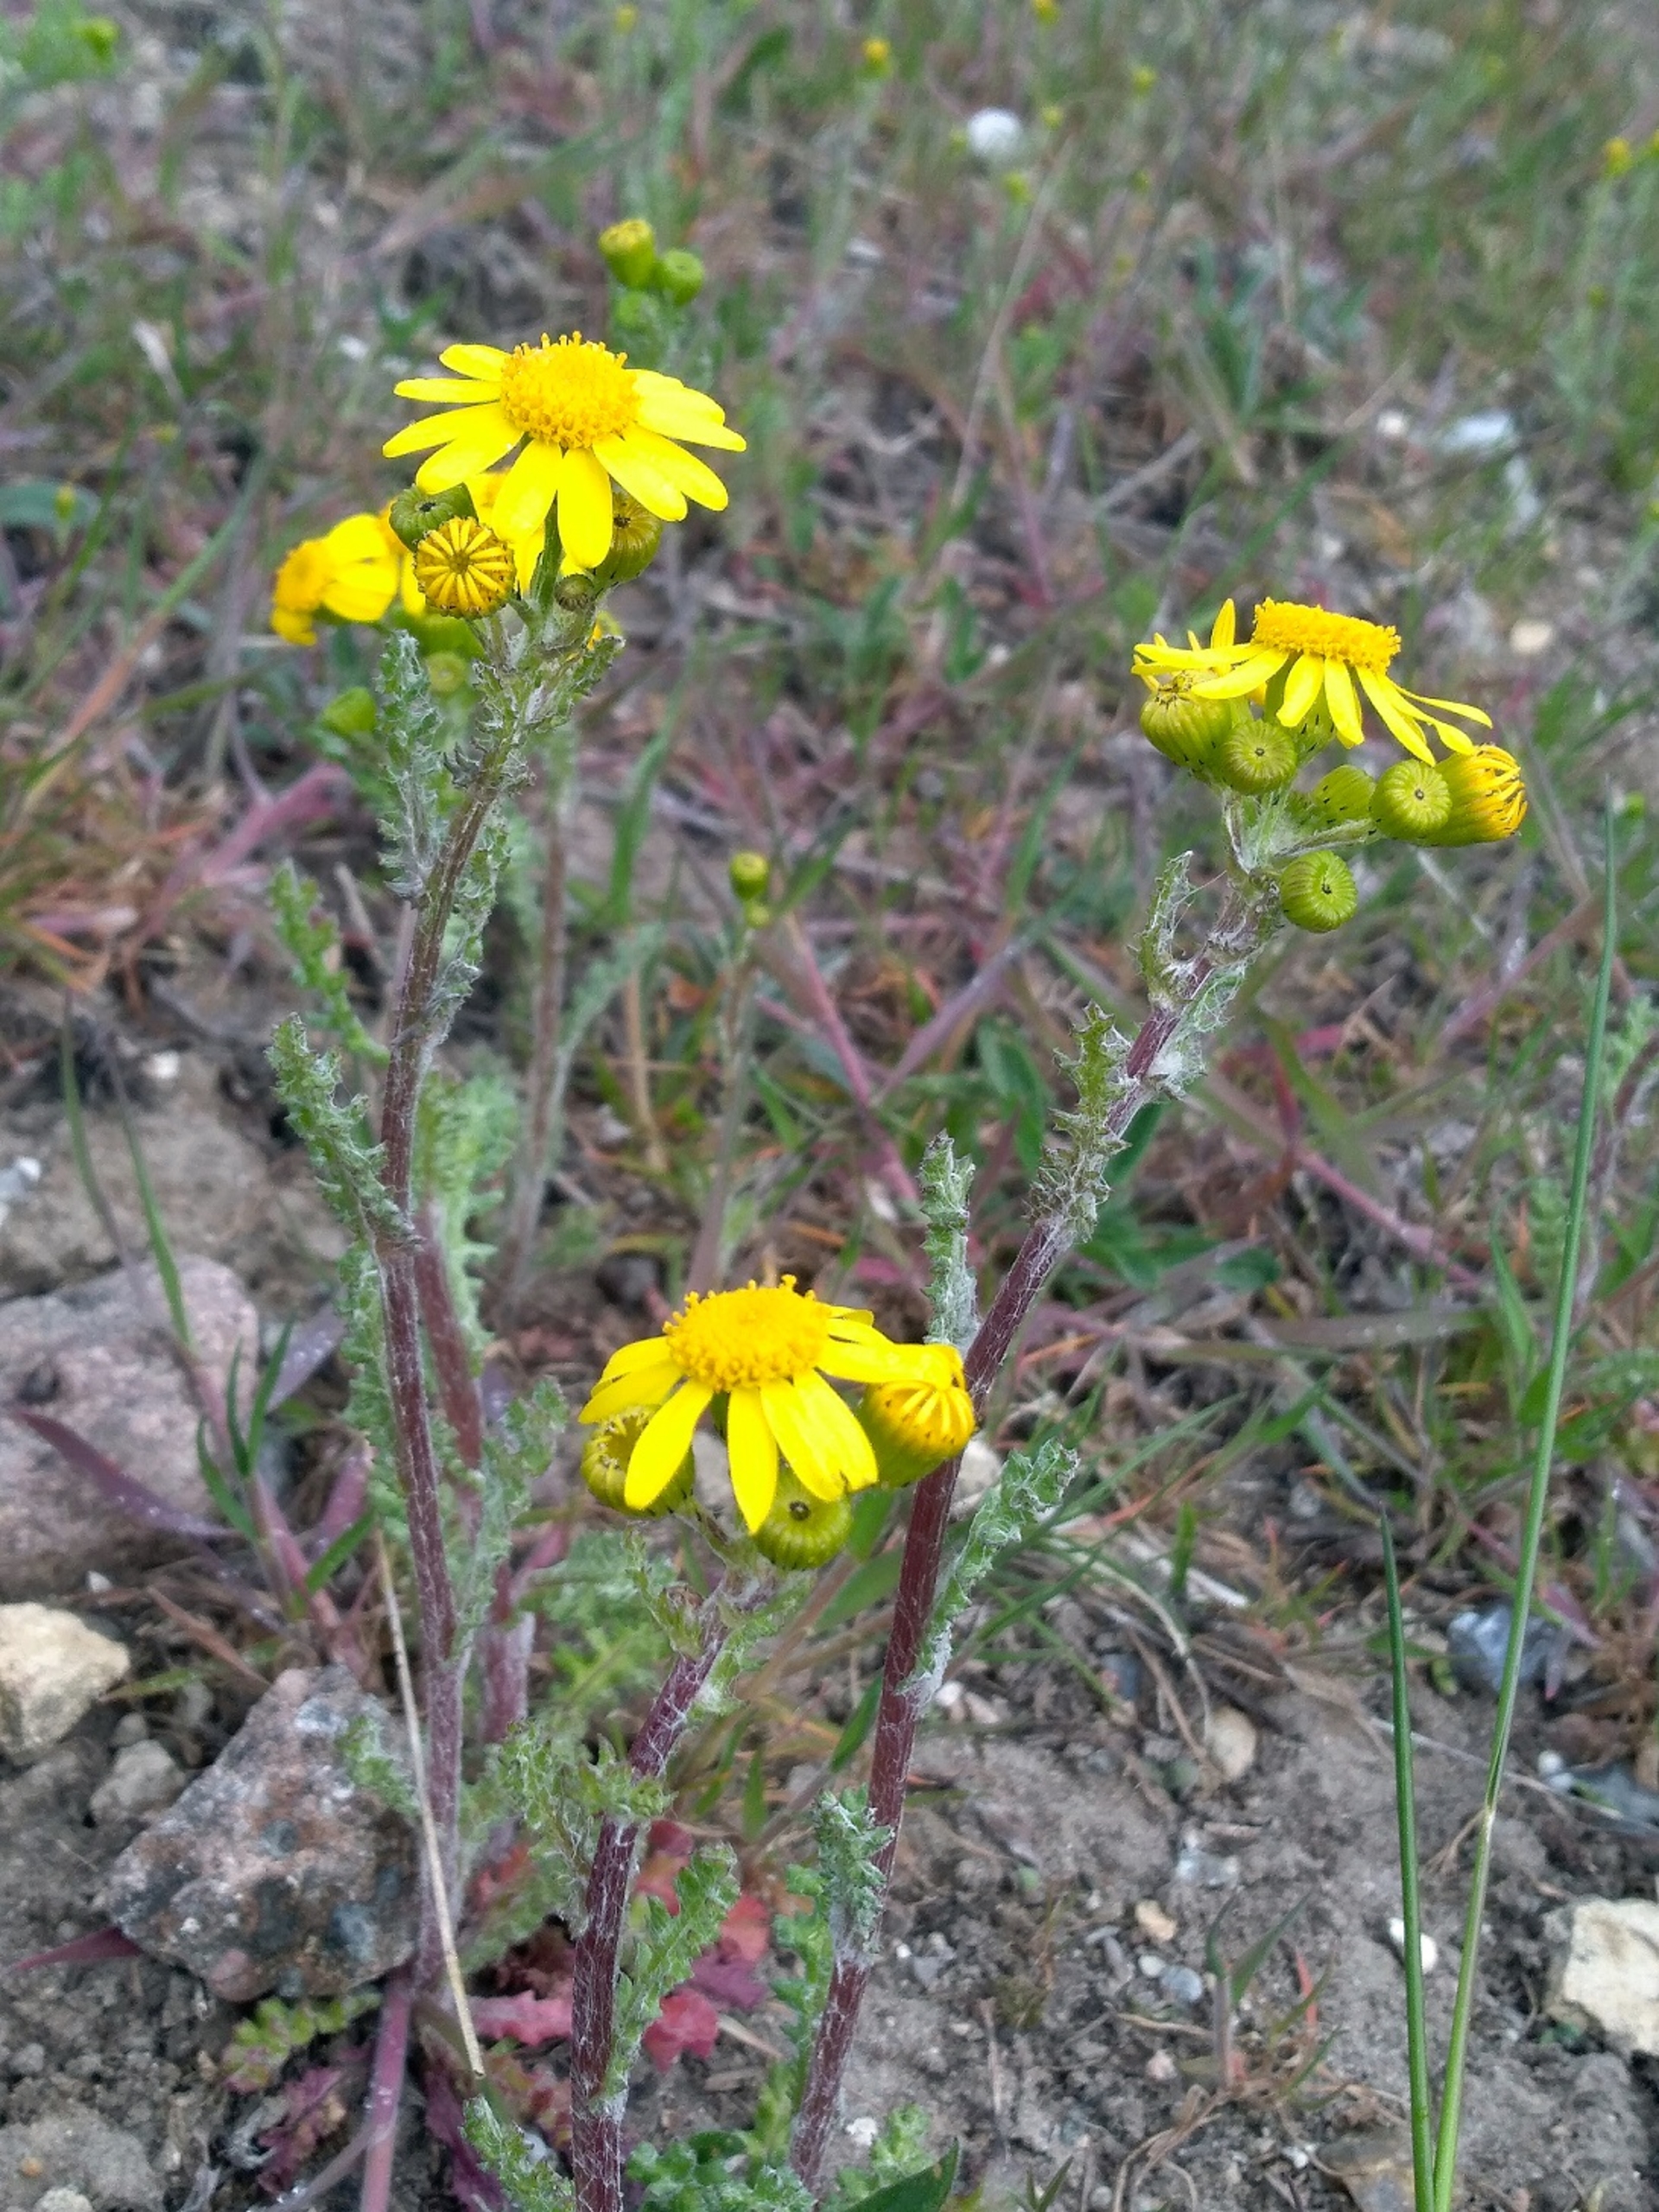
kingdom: Plantae
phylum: Tracheophyta
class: Magnoliopsida
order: Asterales
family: Asteraceae
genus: Senecio
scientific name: Senecio vernalis
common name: Vår-brandbæger (underart)
